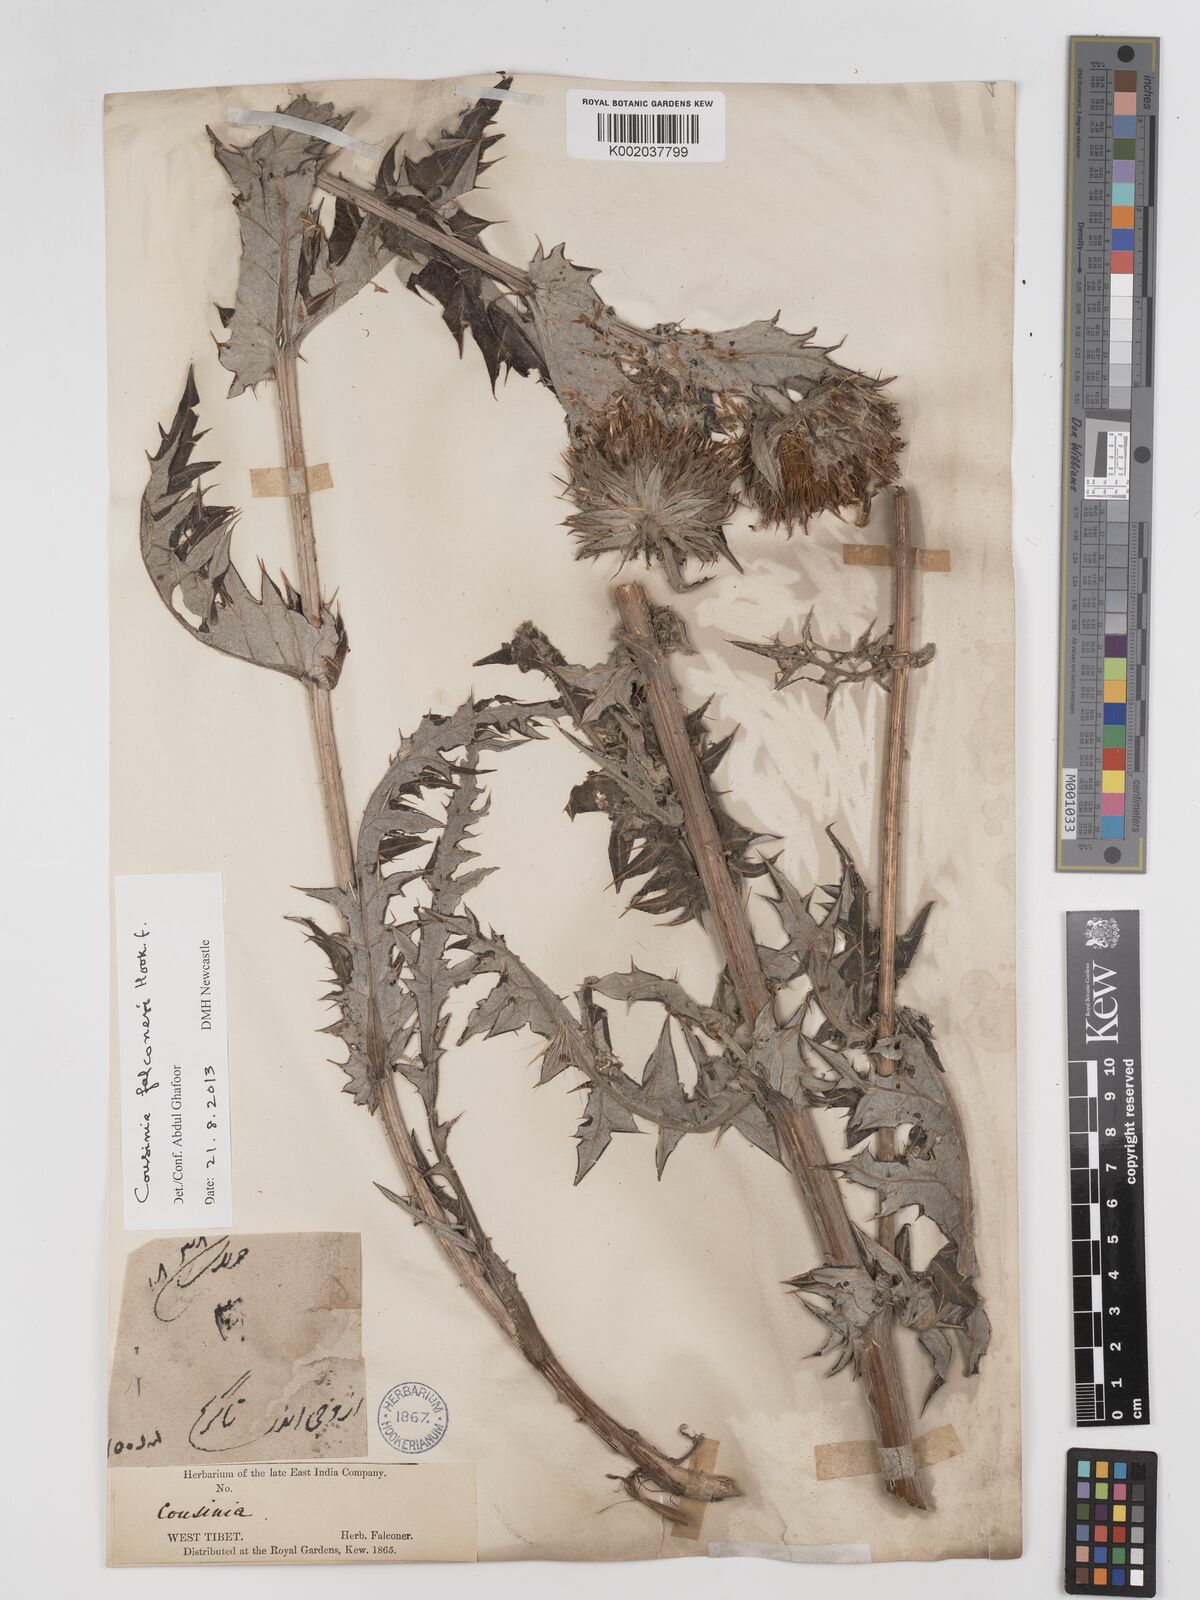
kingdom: Plantae
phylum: Tracheophyta
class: Magnoliopsida
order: Asterales
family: Asteraceae
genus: Cousinia
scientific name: Cousinia
